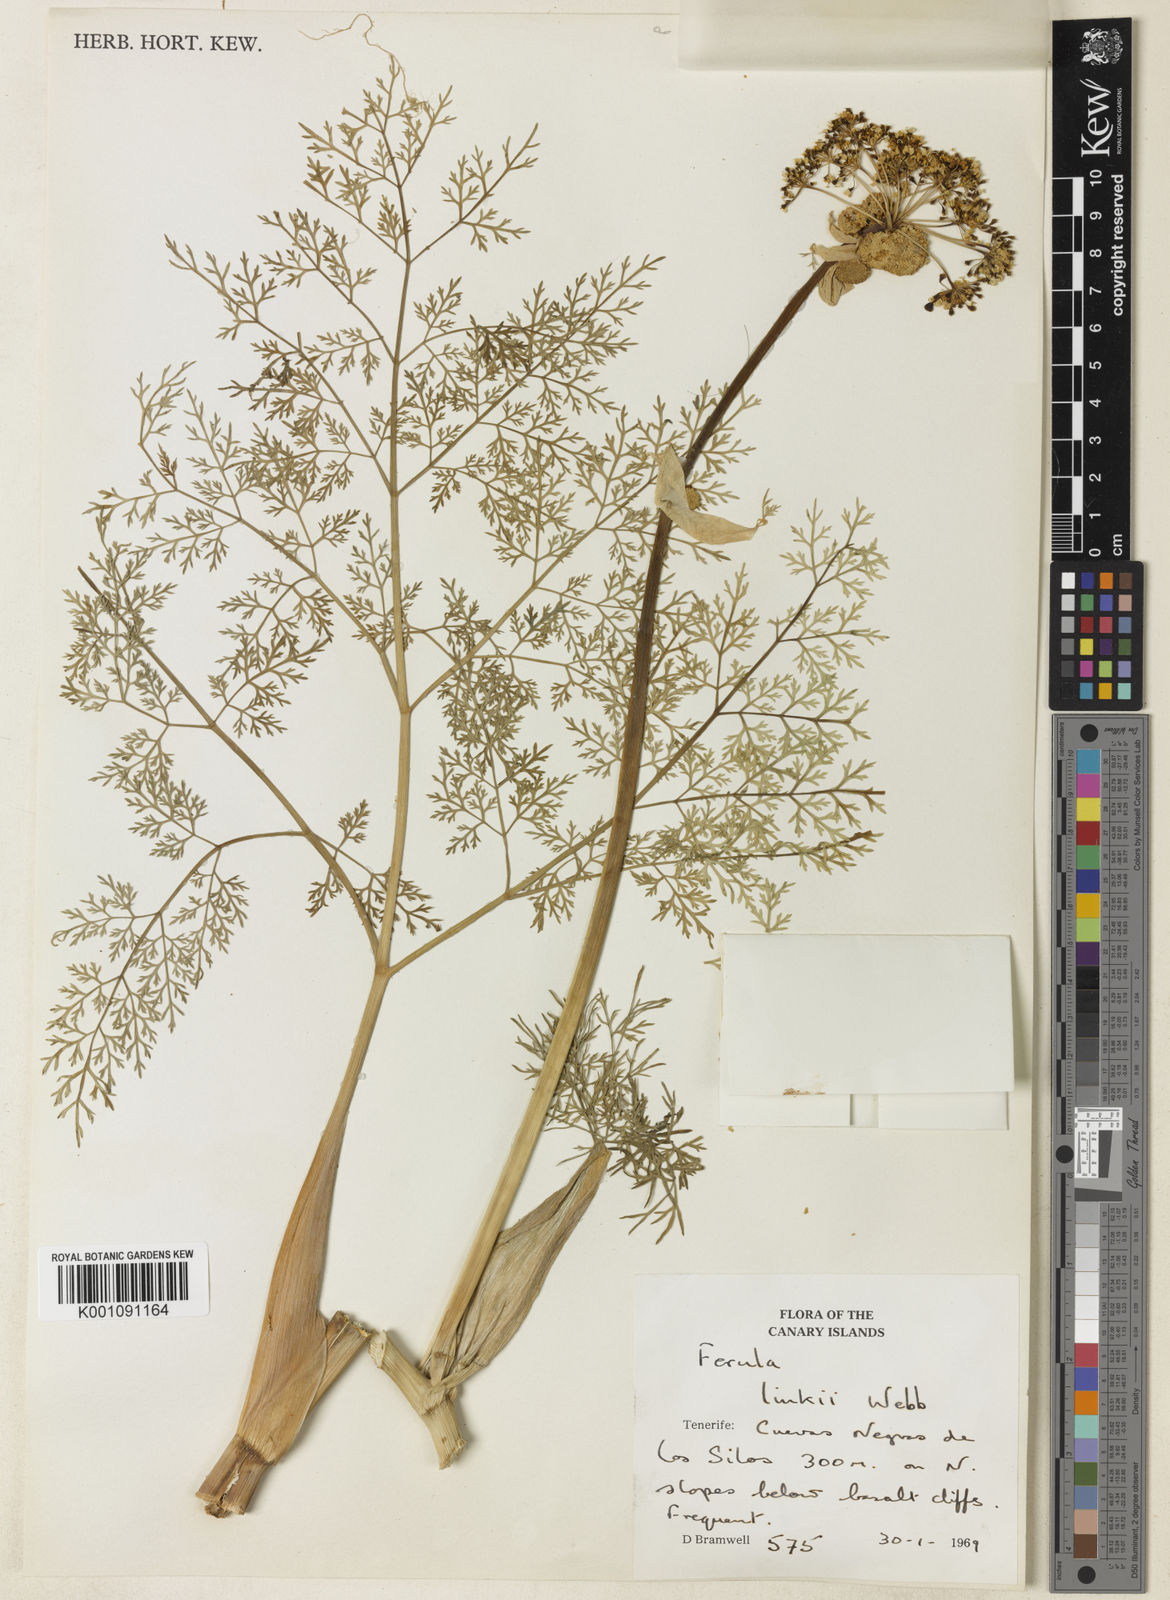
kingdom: Plantae
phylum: Tracheophyta
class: Magnoliopsida
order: Apiales
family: Apiaceae
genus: Ferula
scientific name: Ferula communis
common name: Giant fennel
